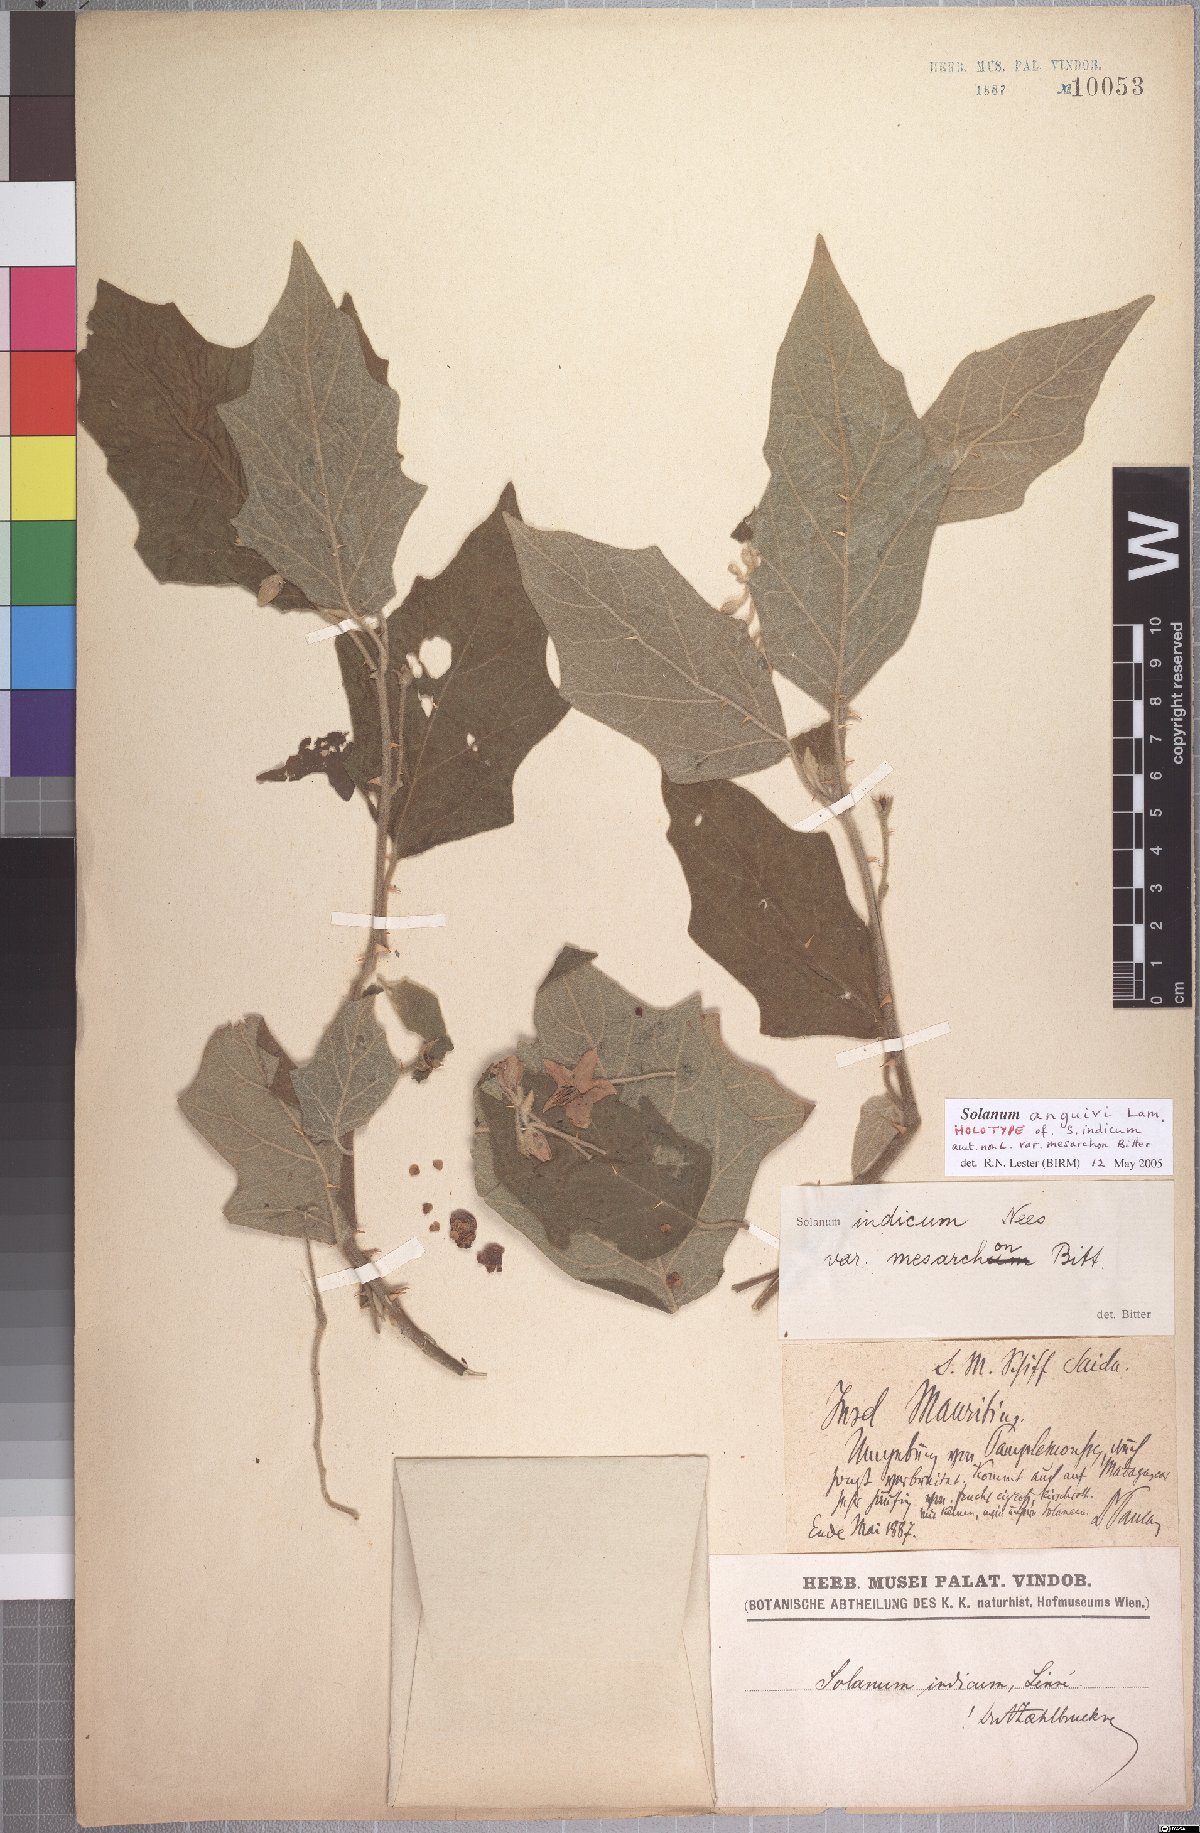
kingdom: Plantae
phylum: Tracheophyta
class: Magnoliopsida
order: Solanales
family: Solanaceae
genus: Solanum
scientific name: Solanum violaceum
